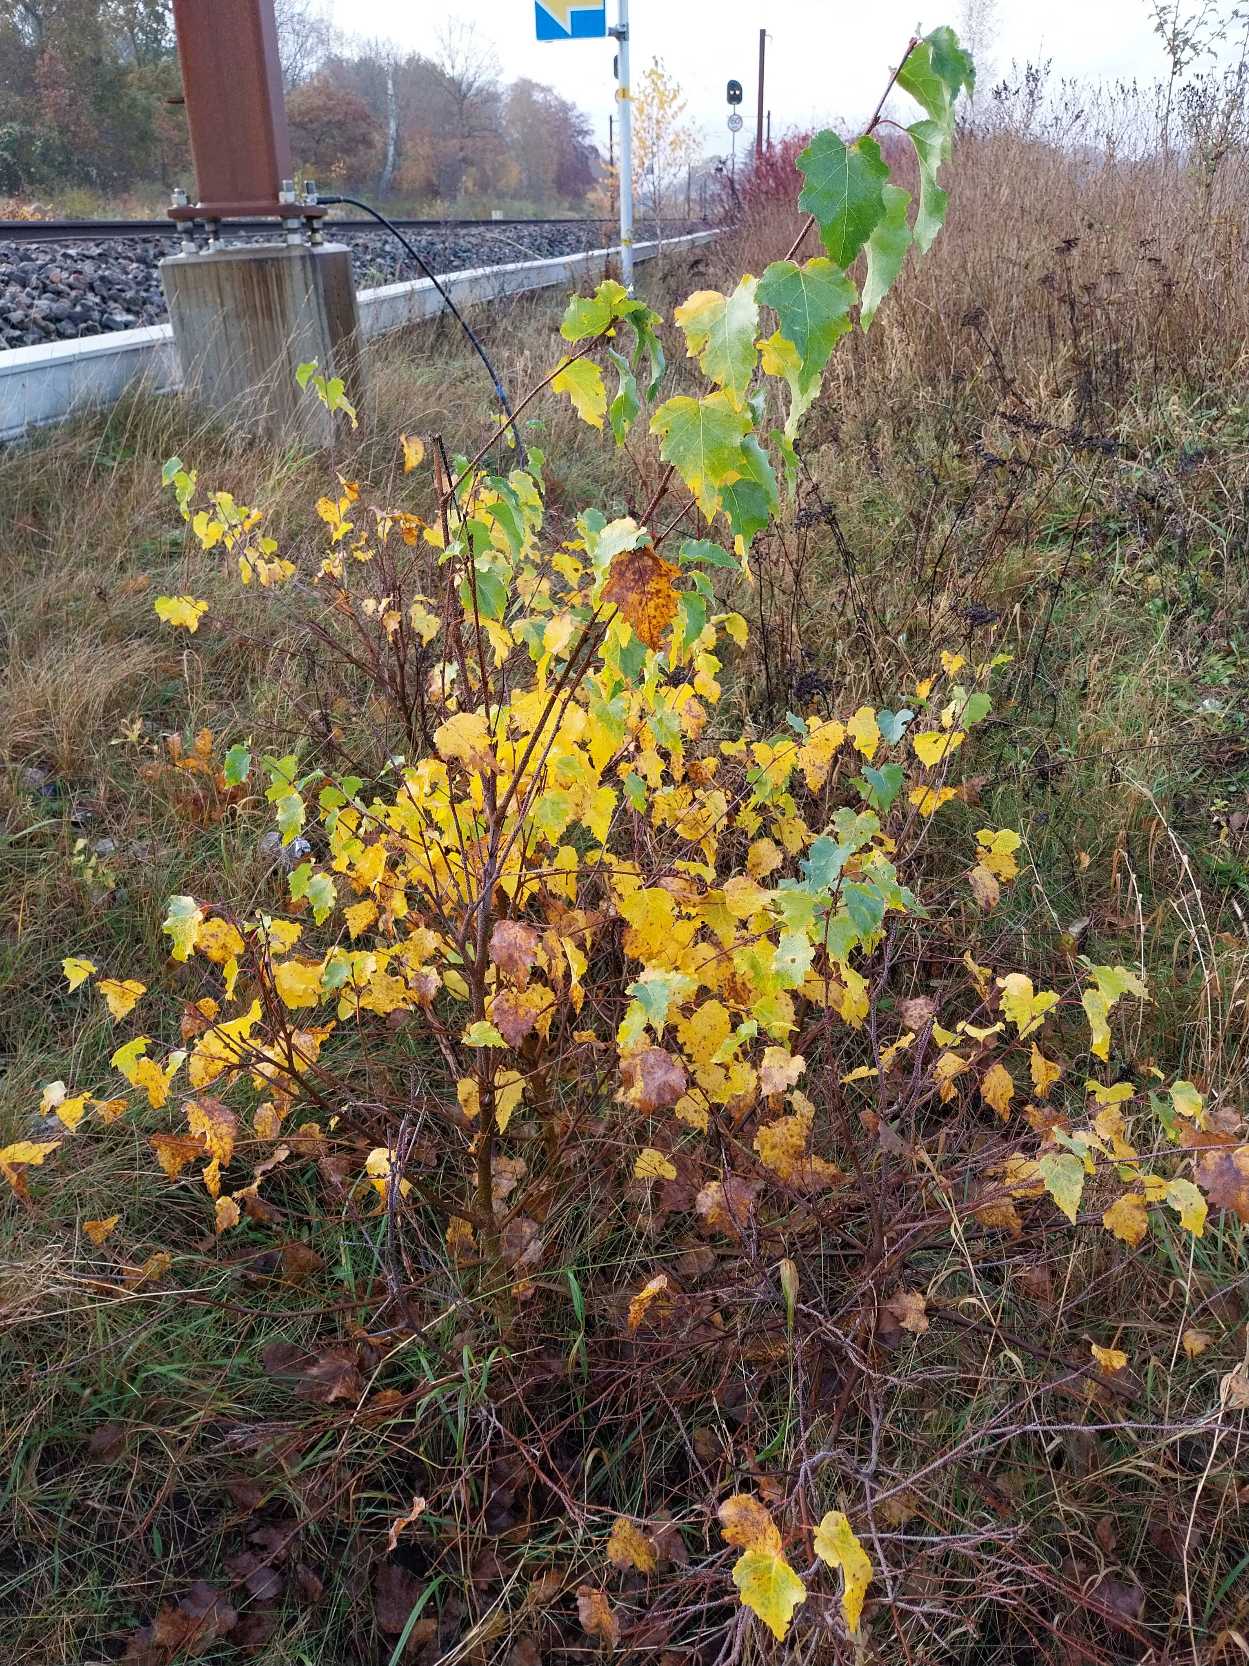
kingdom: Plantae
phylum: Tracheophyta
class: Magnoliopsida
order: Fagales
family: Betulaceae
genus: Betula
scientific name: Betula pendula
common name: Vorte-birk
